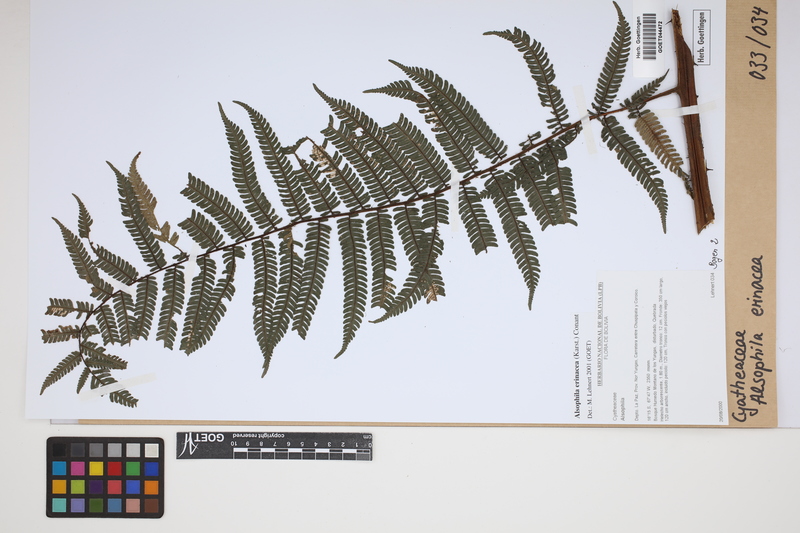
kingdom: Plantae
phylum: Tracheophyta
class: Polypodiopsida
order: Cyatheales
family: Cyatheaceae
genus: Alsophila
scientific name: Alsophila erinacea
